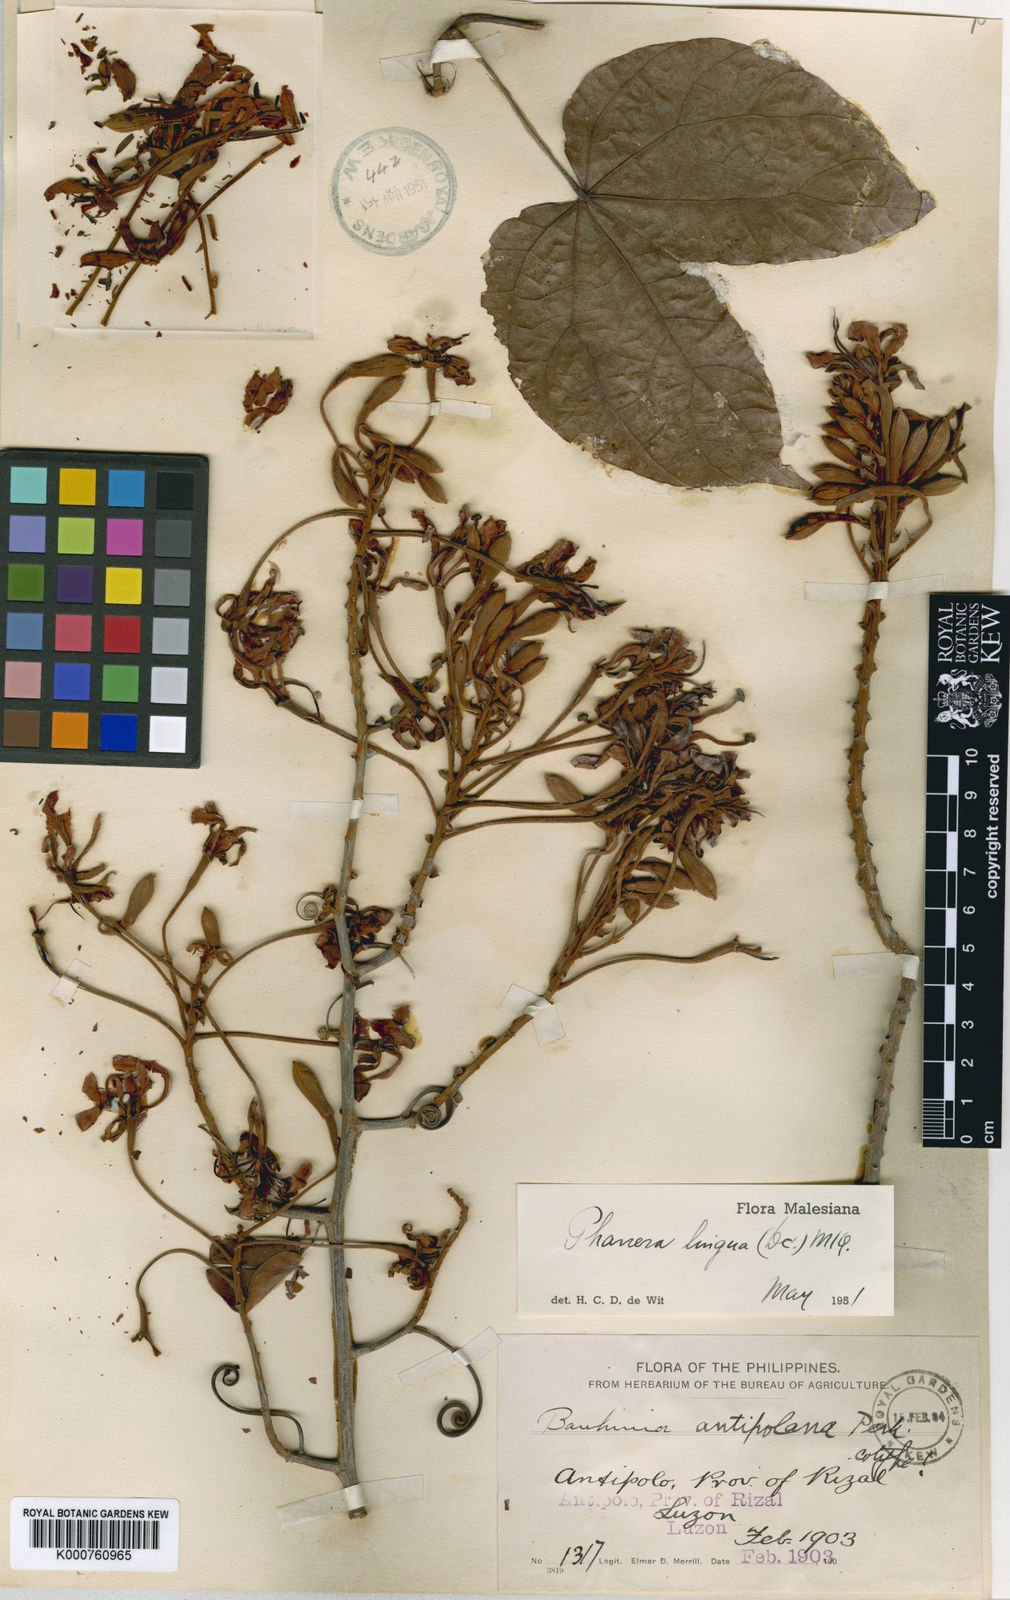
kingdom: Plantae
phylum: Tracheophyta
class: Magnoliopsida
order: Fabales
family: Fabaceae
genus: Phanera
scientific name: Phanera lingua
